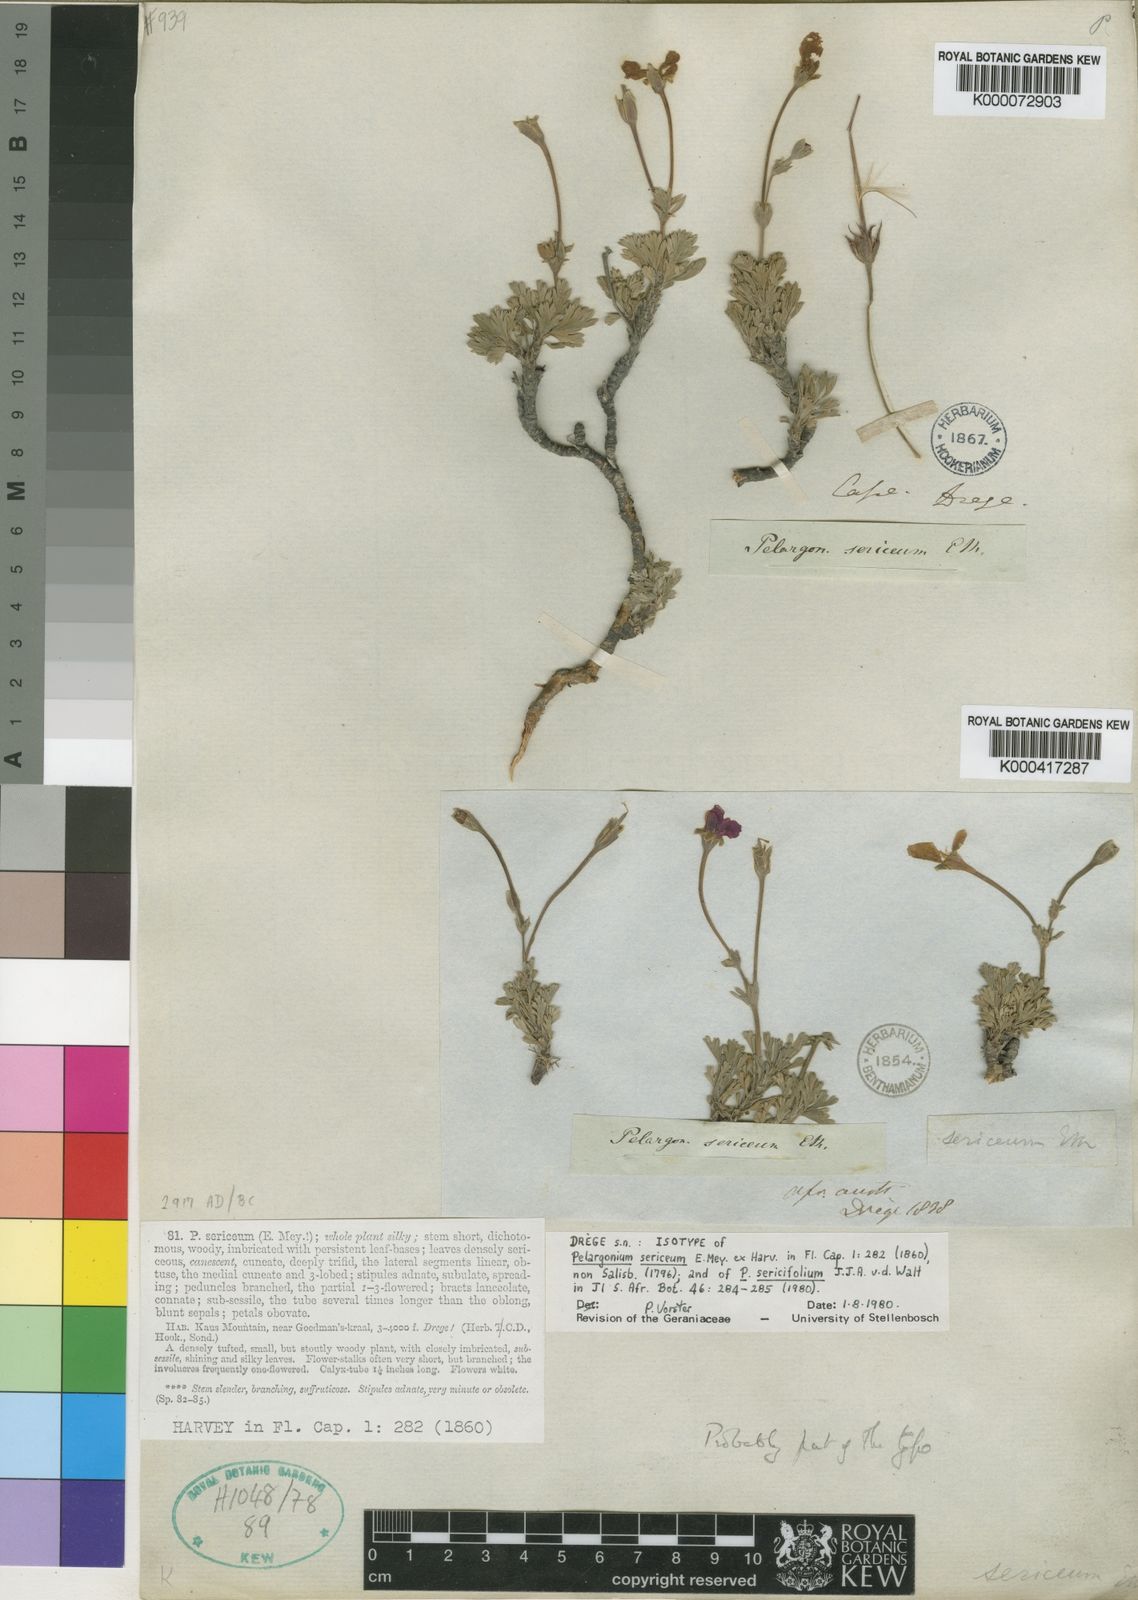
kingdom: Plantae
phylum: Tracheophyta
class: Magnoliopsida
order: Geraniales
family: Geraniaceae
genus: Pelargonium
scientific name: Pelargonium sericifolium
